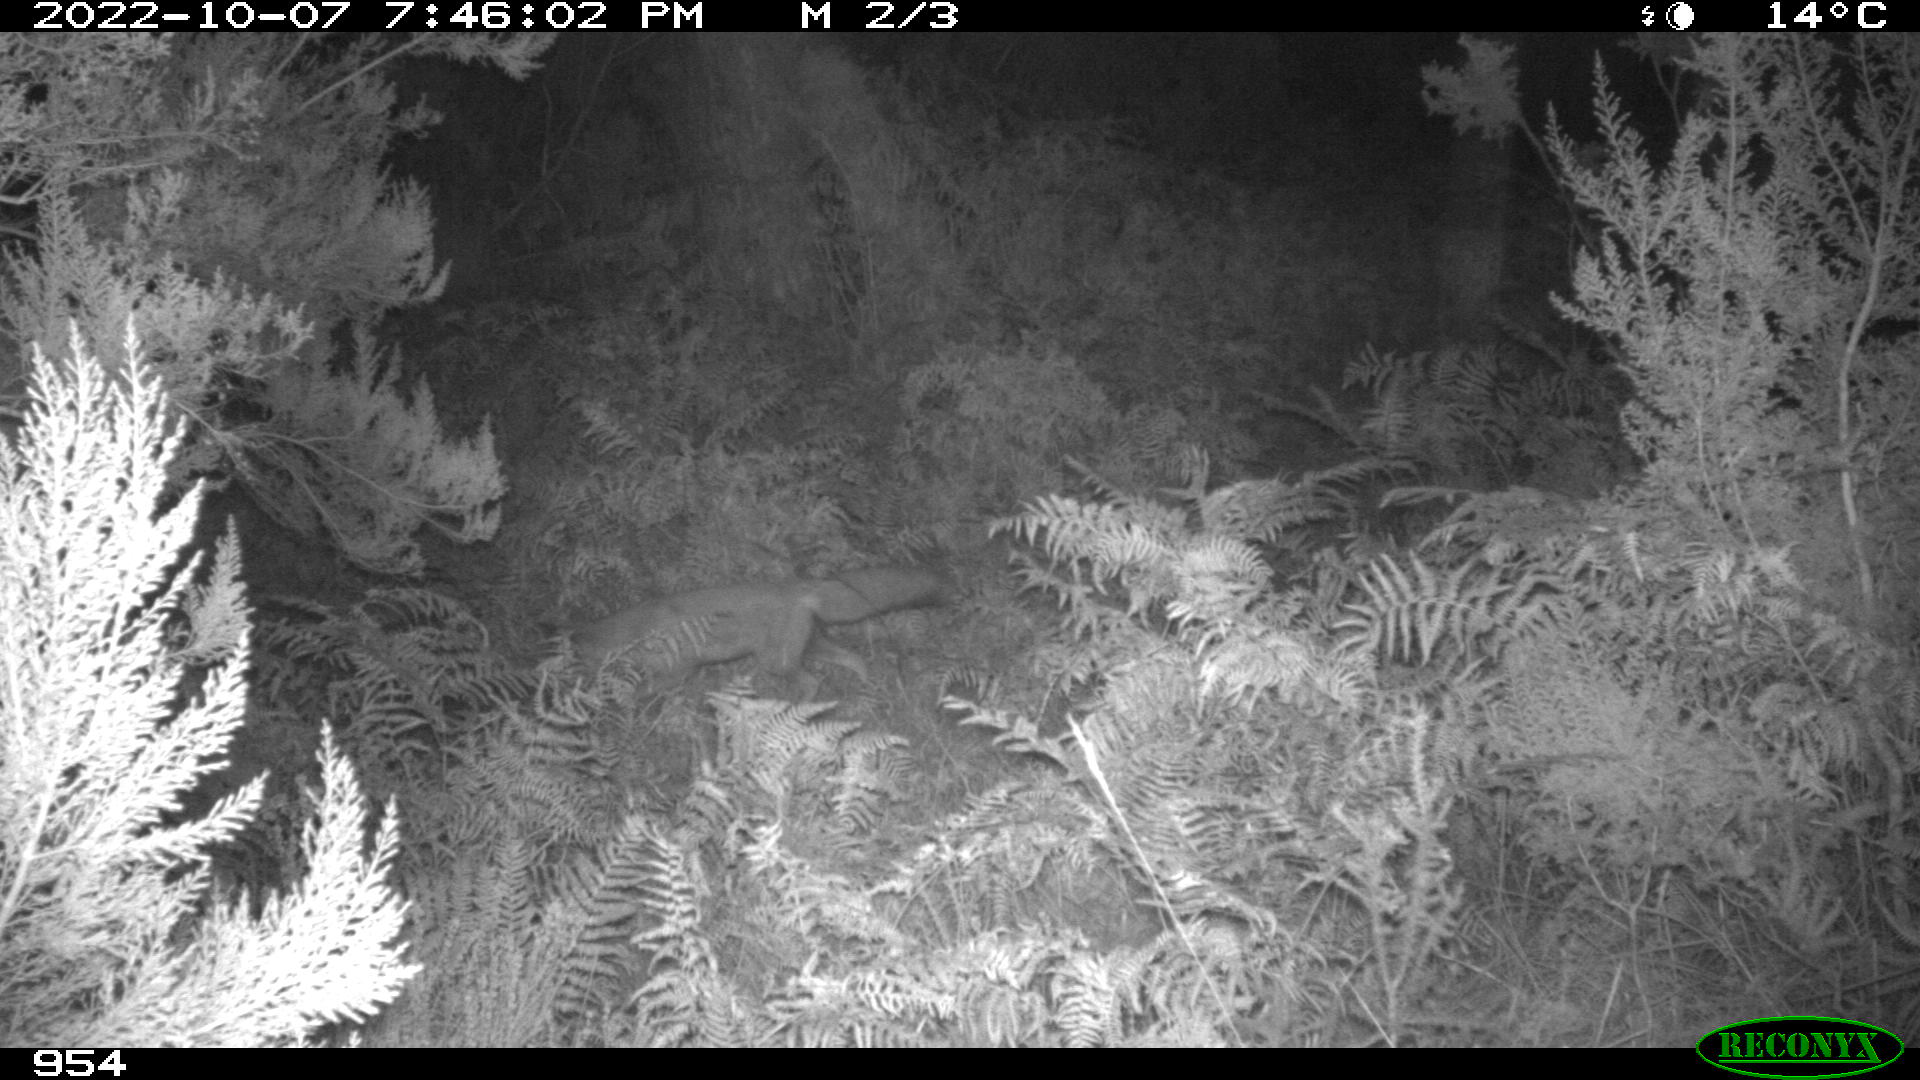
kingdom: Animalia
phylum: Chordata
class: Mammalia
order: Carnivora
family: Canidae
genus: Vulpes
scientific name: Vulpes vulpes
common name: Red fox
